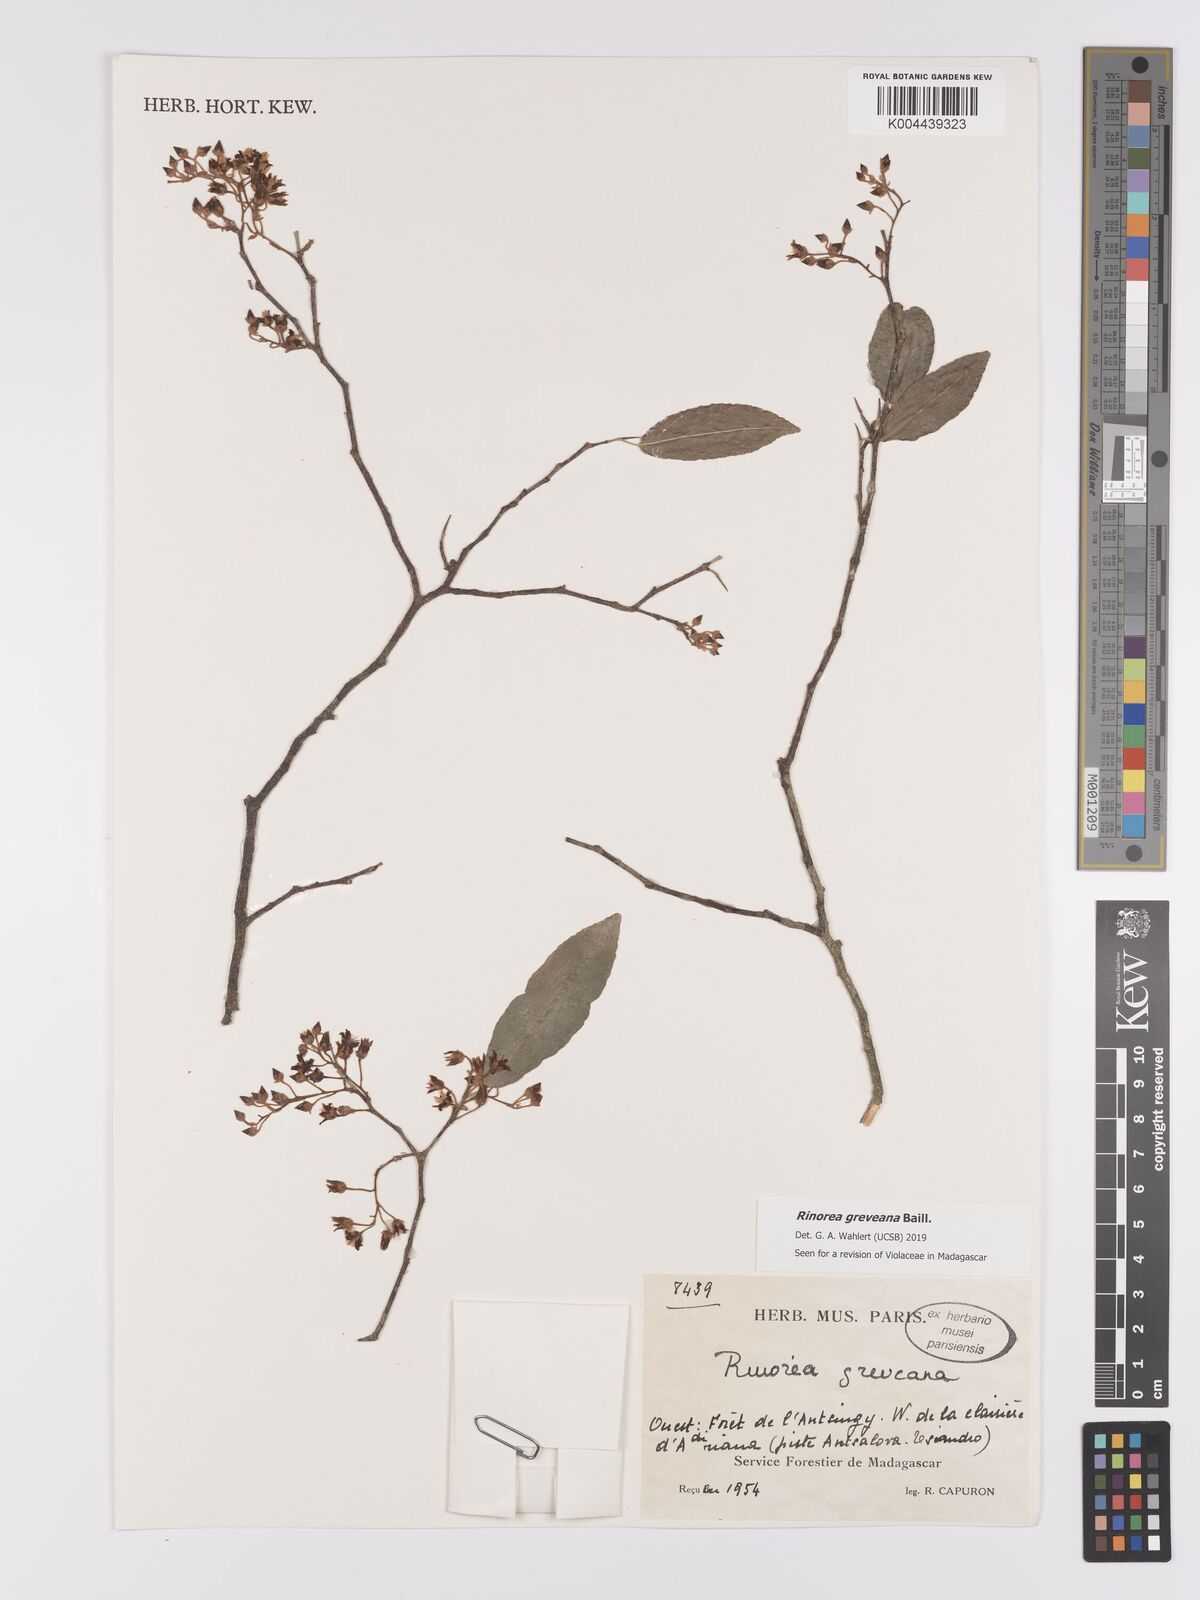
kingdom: Plantae
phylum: Tracheophyta
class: Magnoliopsida
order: Malpighiales
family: Violaceae
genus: Rinorea
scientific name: Rinorea greveana
